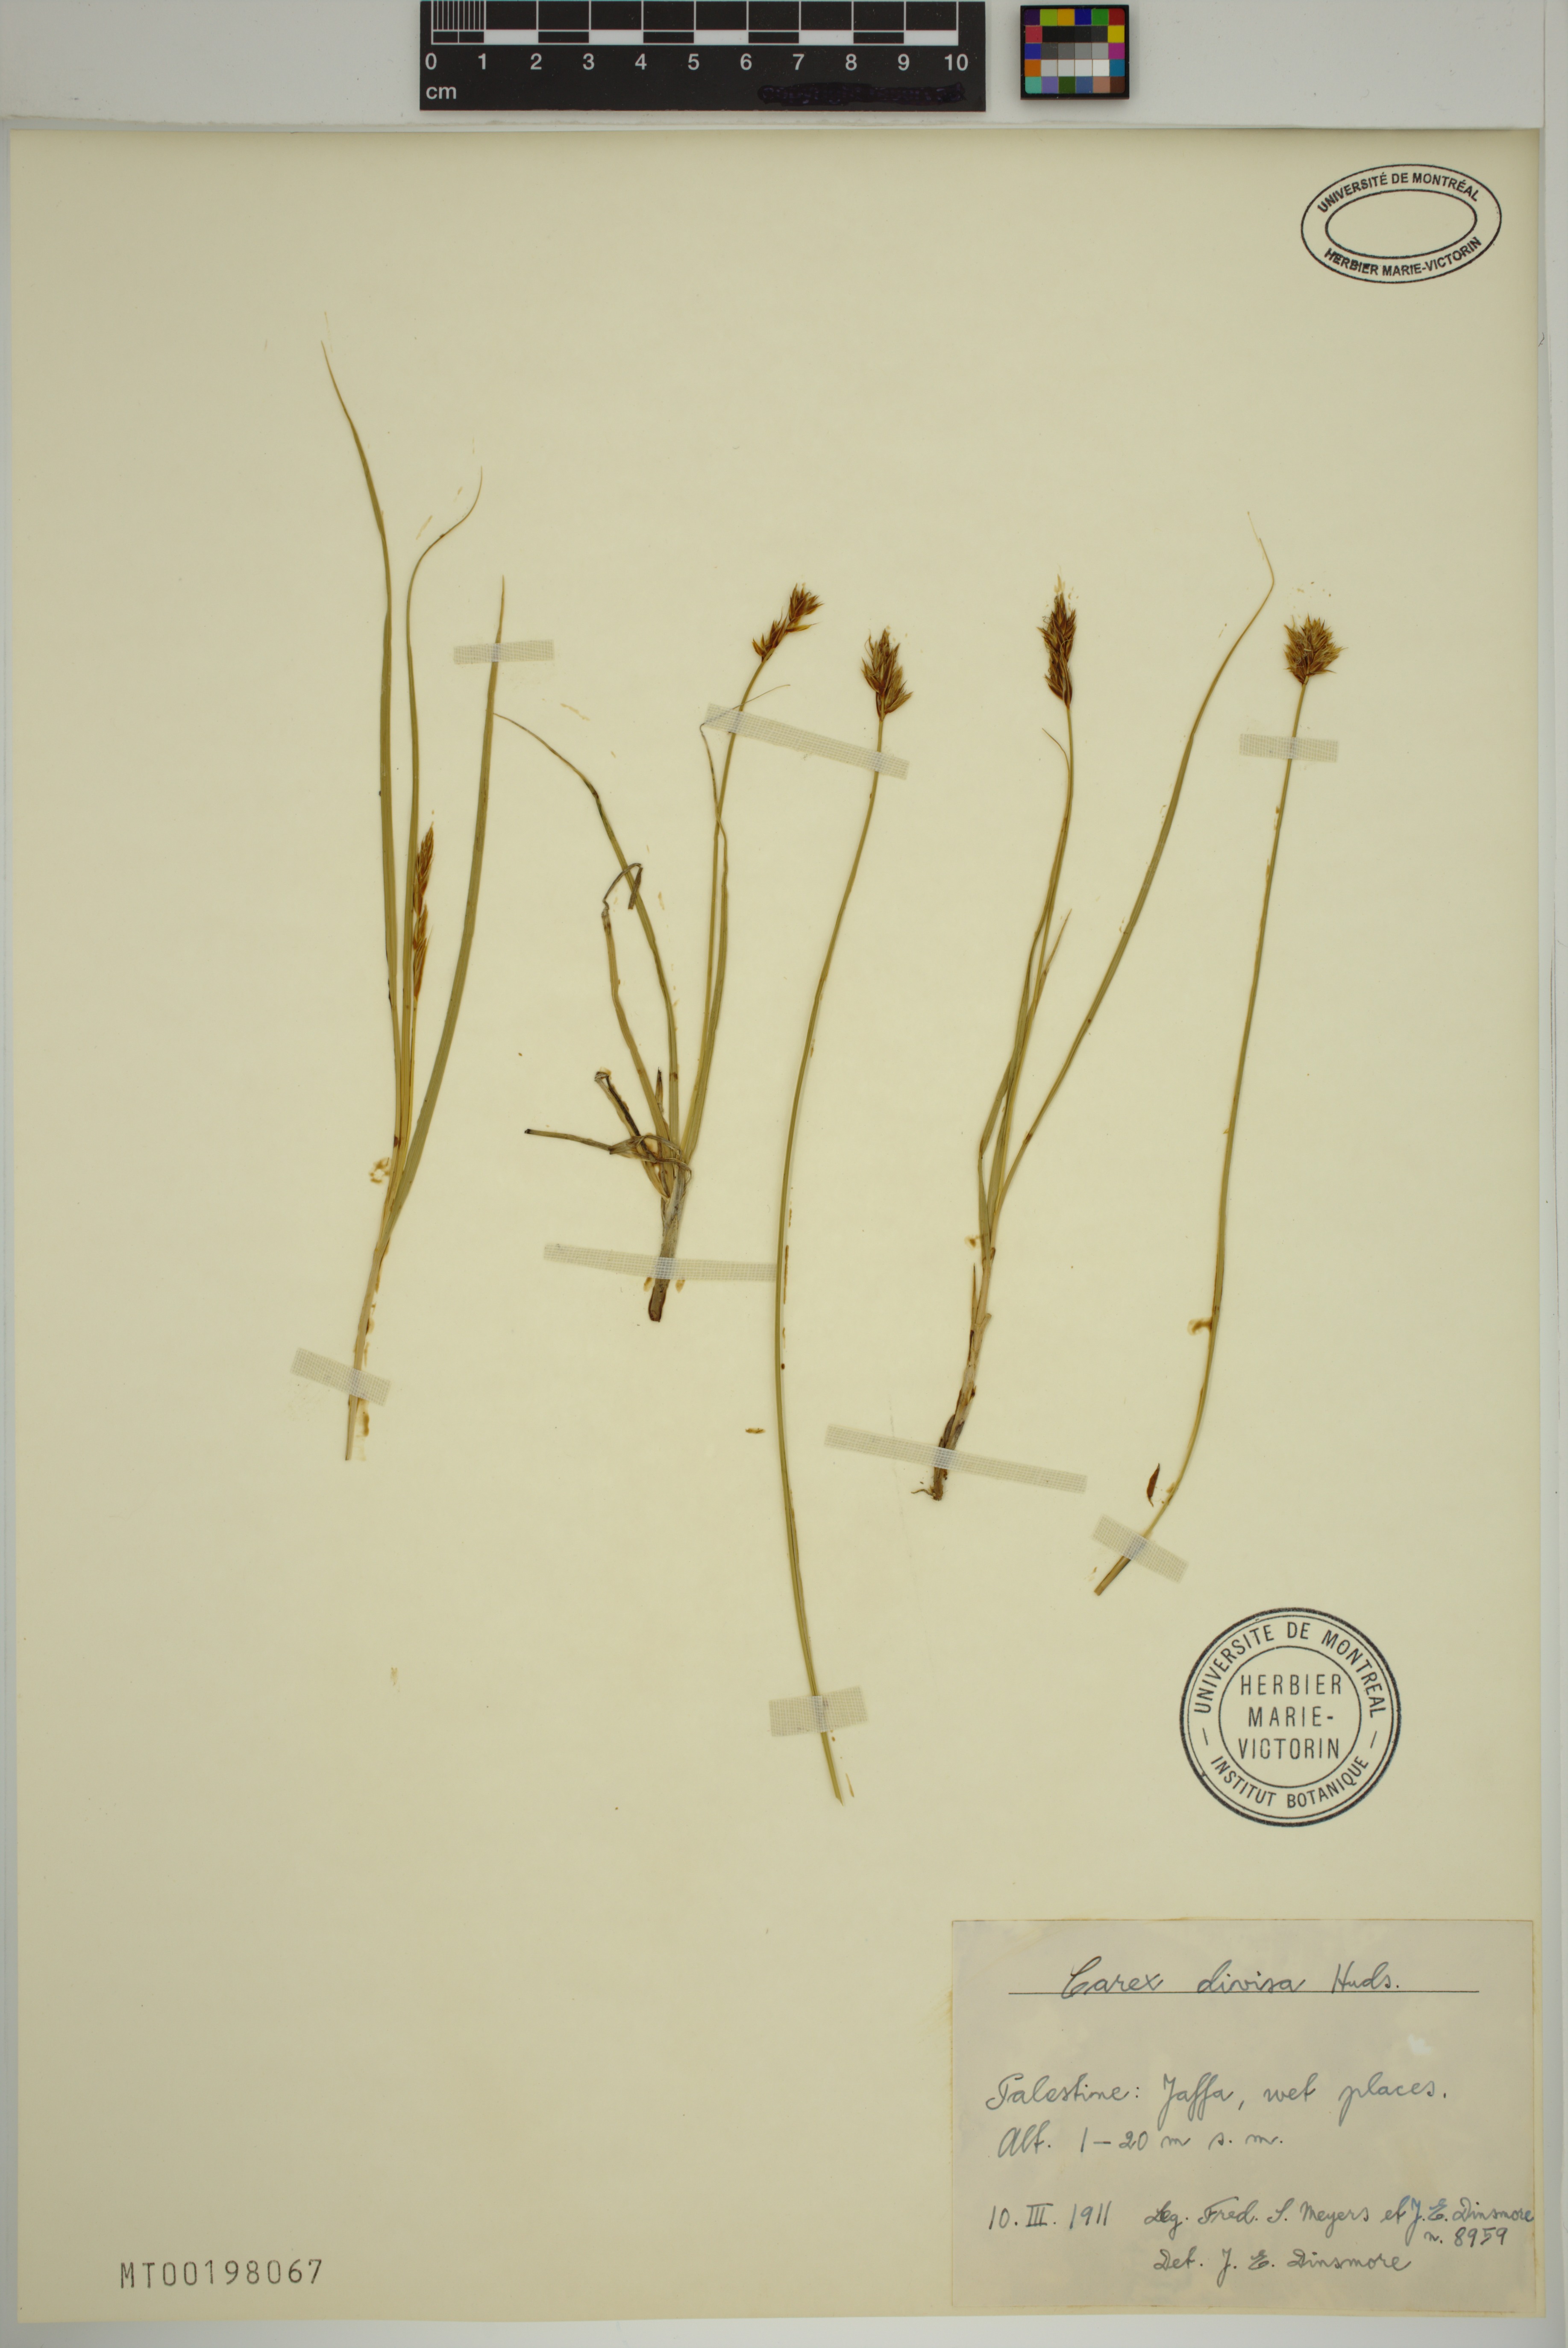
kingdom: Plantae
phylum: Tracheophyta
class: Liliopsida
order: Poales
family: Cyperaceae
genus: Carex
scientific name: Carex divisa
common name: Divided sedge
